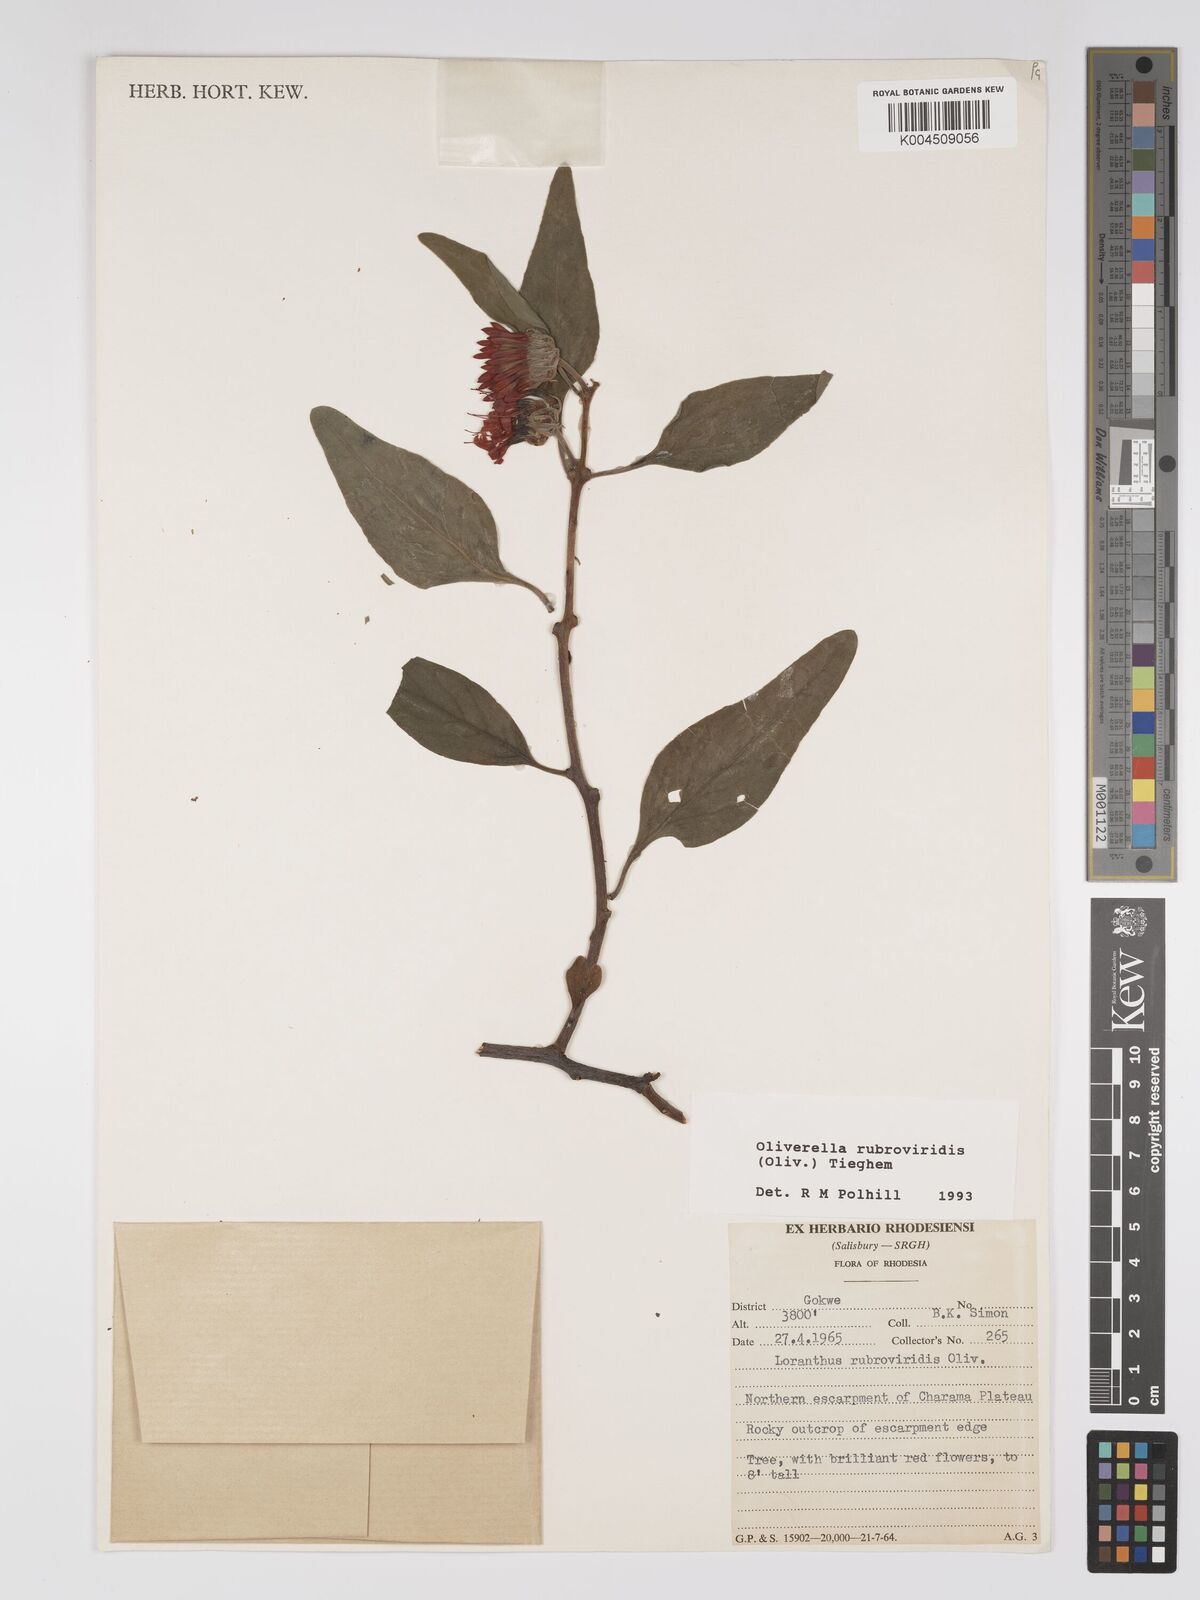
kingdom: Plantae
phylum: Tracheophyta
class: Magnoliopsida
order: Santalales
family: Loranthaceae
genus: Oliverella
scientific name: Oliverella rubroviridis
